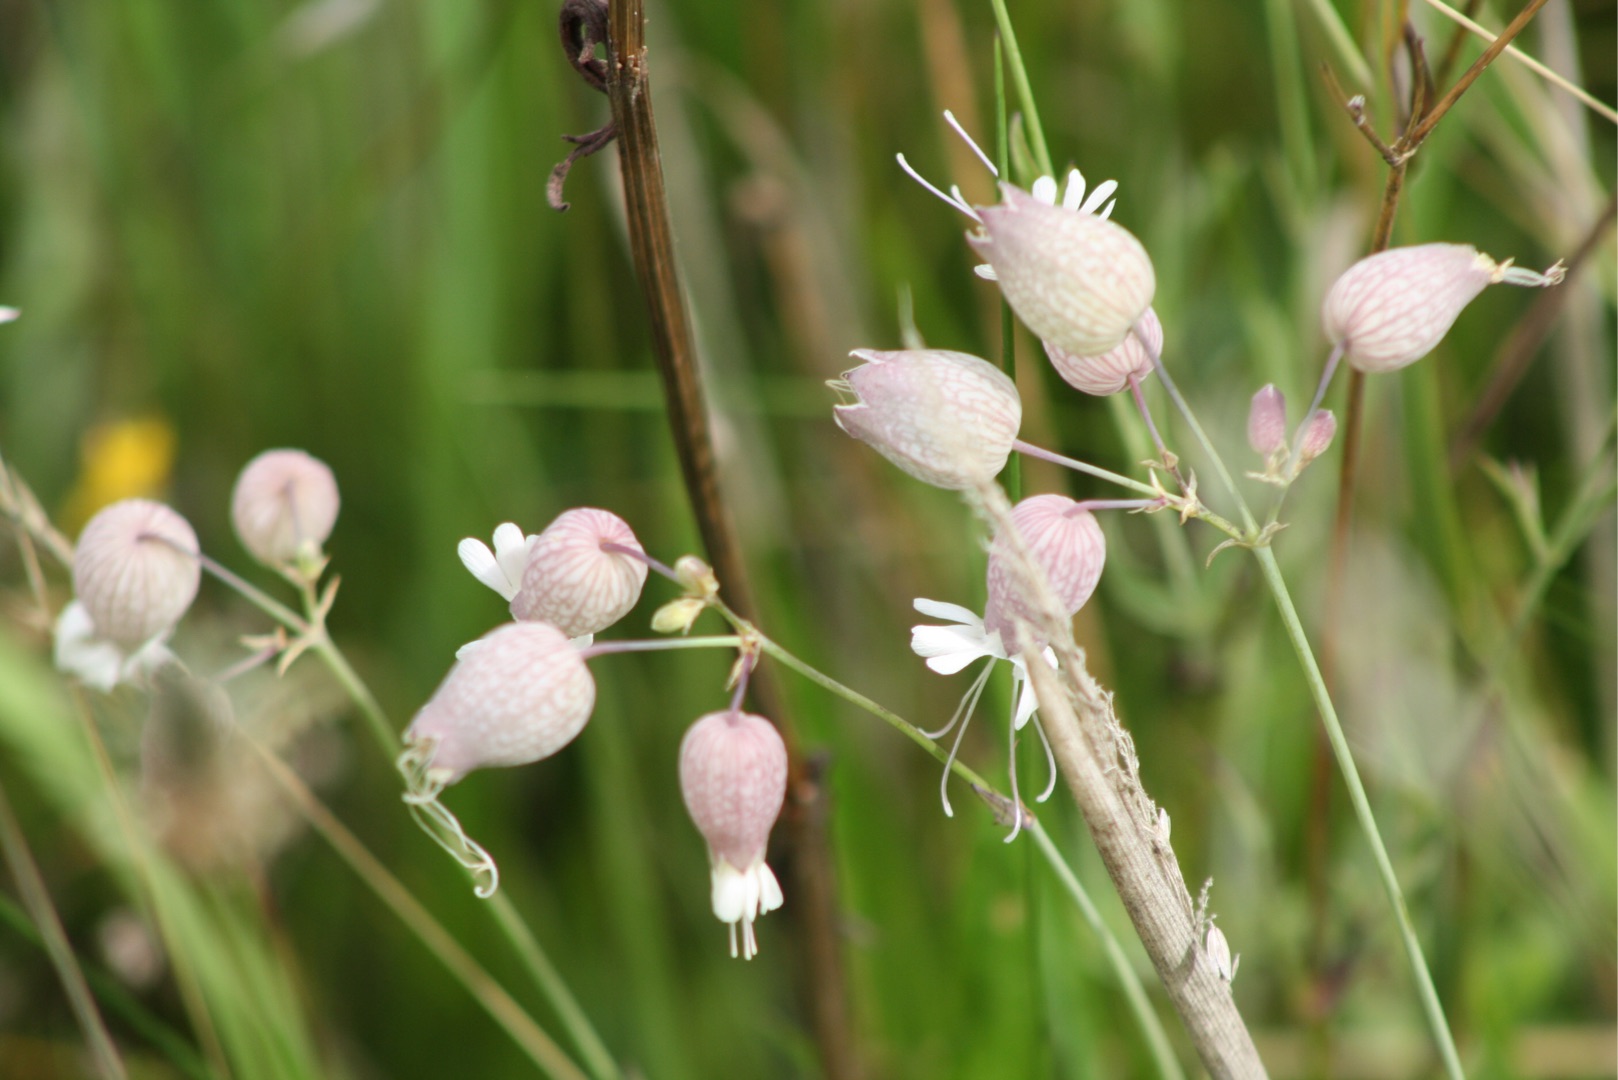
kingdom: Plantae
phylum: Tracheophyta
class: Magnoliopsida
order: Caryophyllales
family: Caryophyllaceae
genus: Silene
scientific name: Silene vulgaris
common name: Blæresmælde
